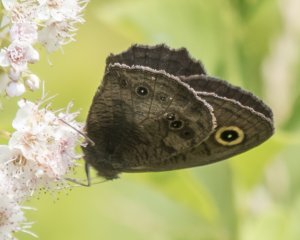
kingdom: Animalia
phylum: Arthropoda
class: Insecta
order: Lepidoptera
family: Nymphalidae
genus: Cercyonis
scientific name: Cercyonis pegala
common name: Common Wood-Nymph
